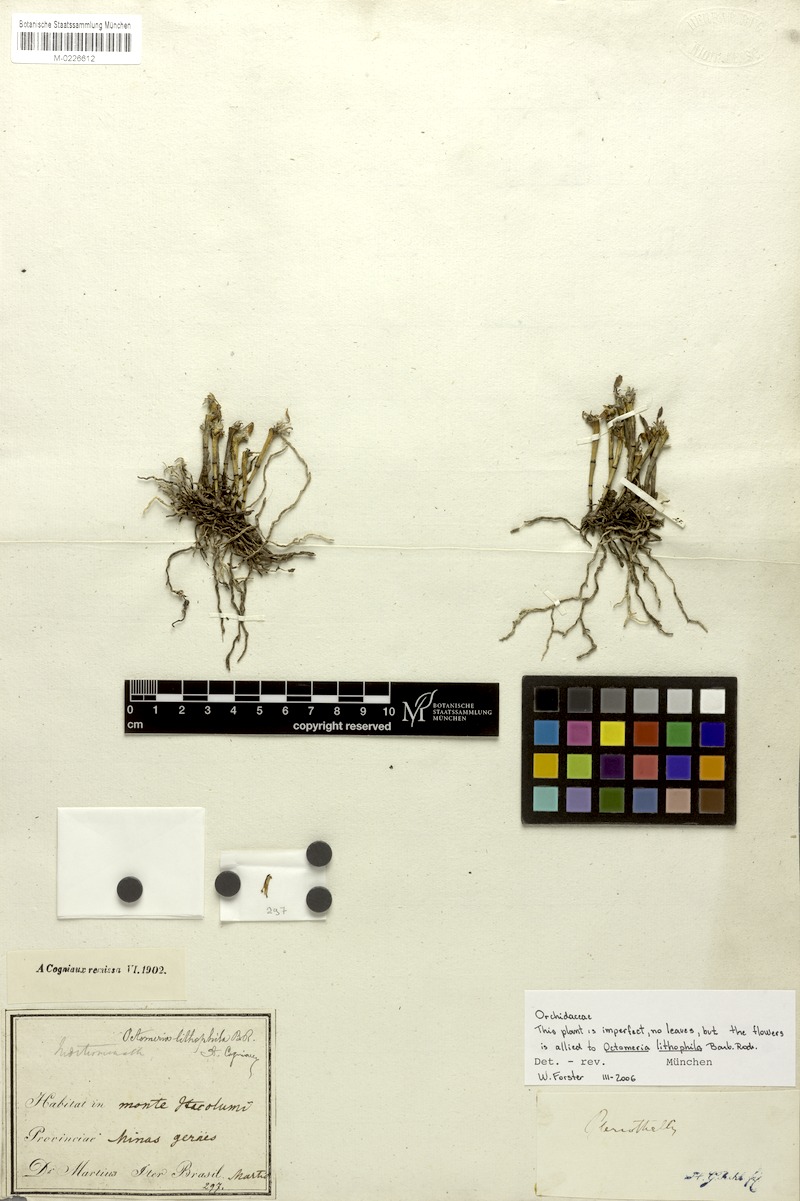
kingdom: Plantae
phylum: Tracheophyta
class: Liliopsida
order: Asparagales
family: Orchidaceae
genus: Octomeria
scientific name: Octomeria lithophila
